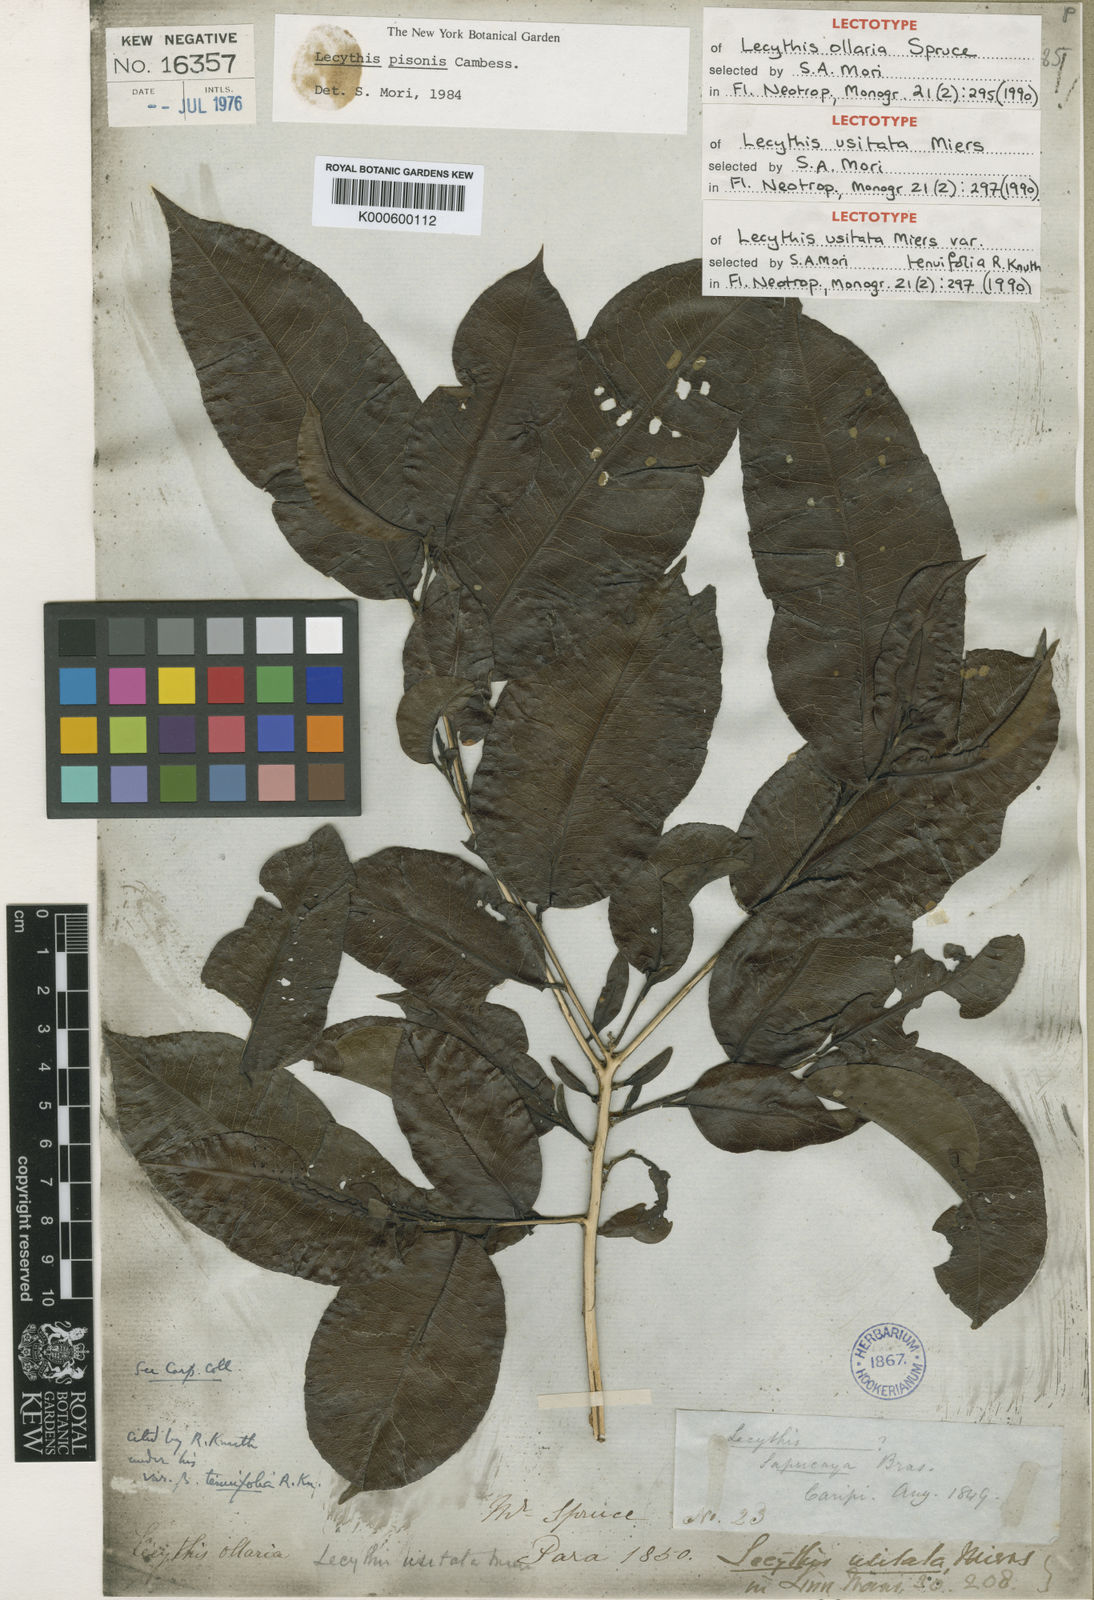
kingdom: Plantae
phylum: Tracheophyta
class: Magnoliopsida
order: Ericales
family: Lecythidaceae
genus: Lecythis
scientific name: Lecythis pisonis
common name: Paradise-nut
